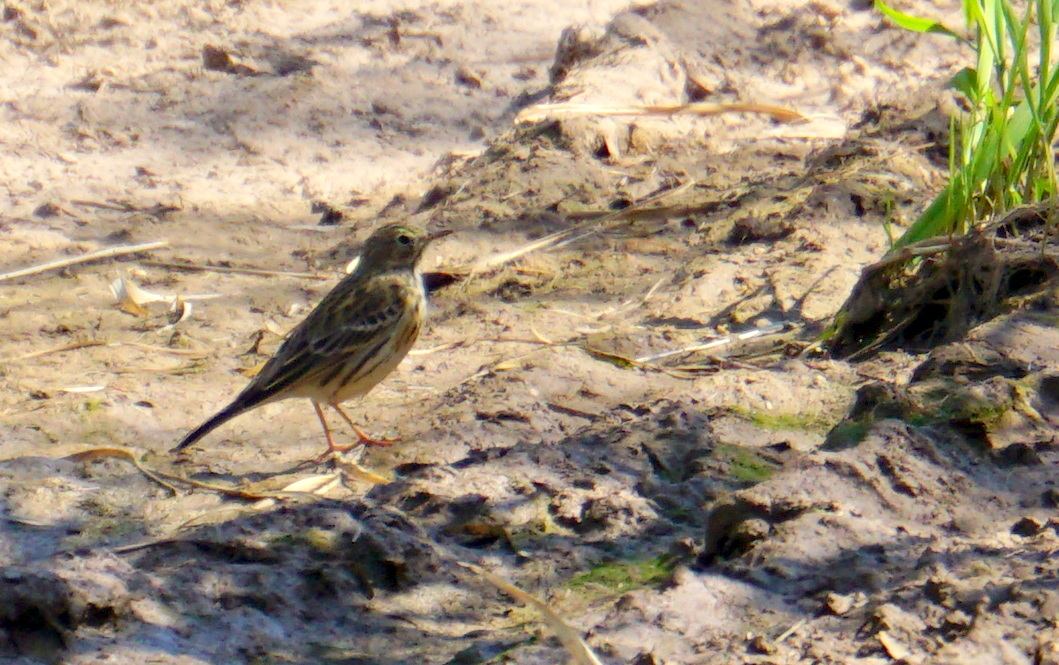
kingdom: Animalia
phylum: Chordata
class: Aves
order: Passeriformes
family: Motacillidae
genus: Anthus
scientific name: Anthus trivialis
